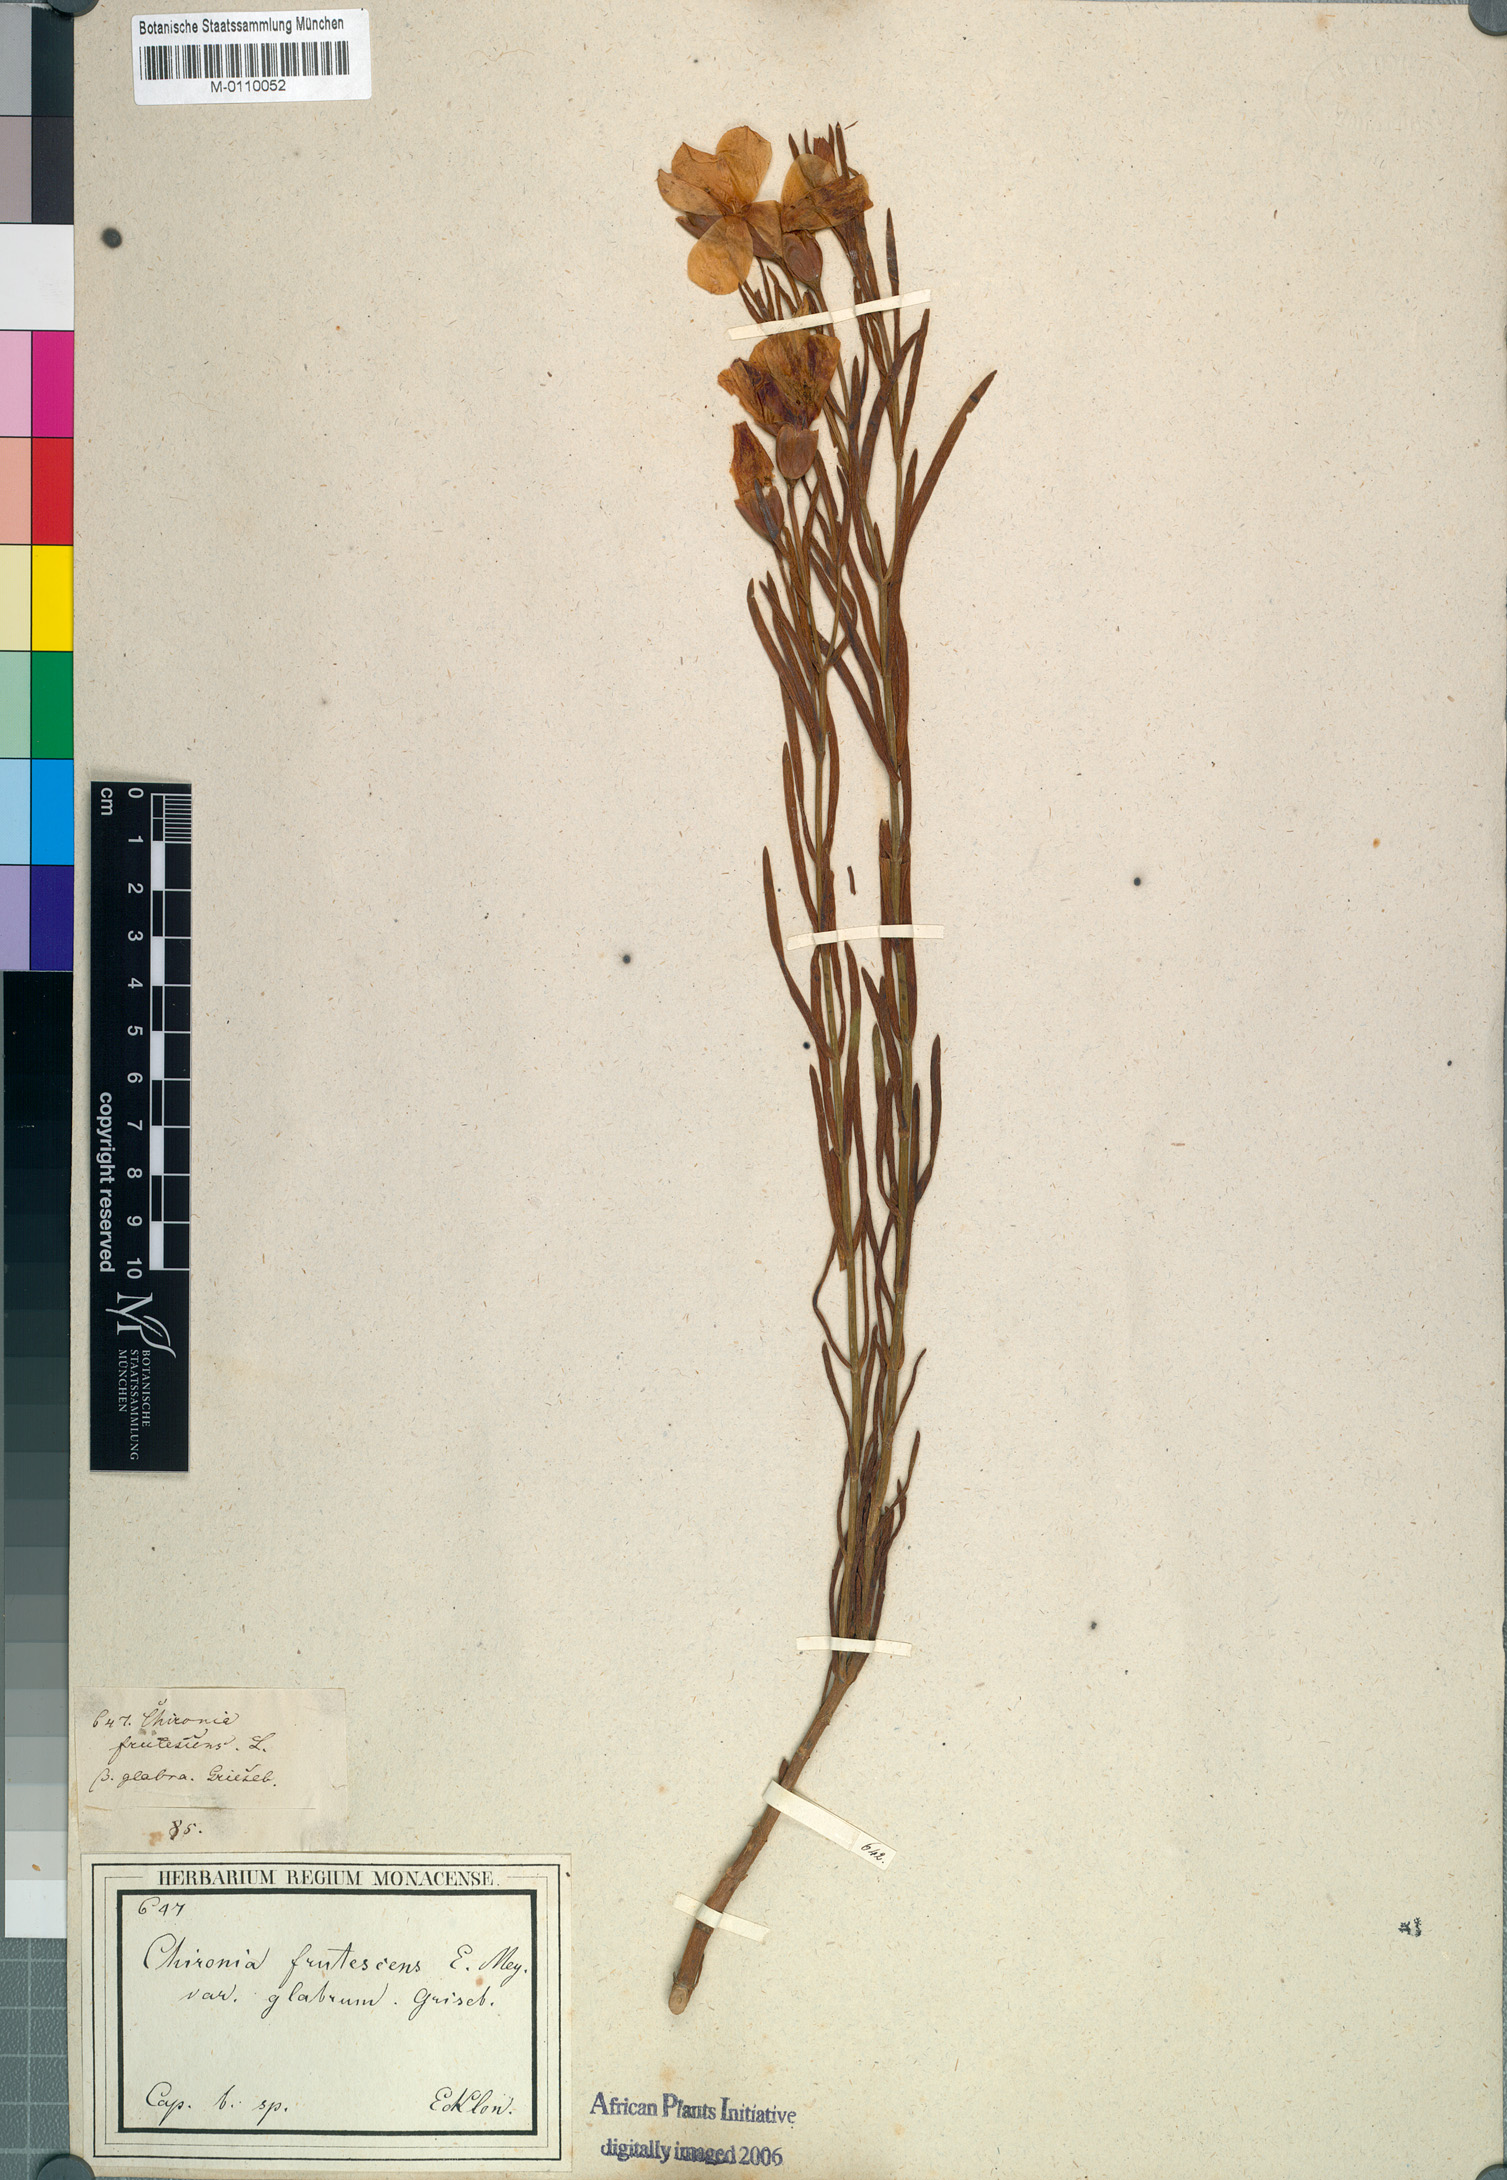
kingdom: Plantae
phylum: Tracheophyta
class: Magnoliopsida
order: Gentianales
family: Gentianaceae
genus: Orphium
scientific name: Orphium frutescens
